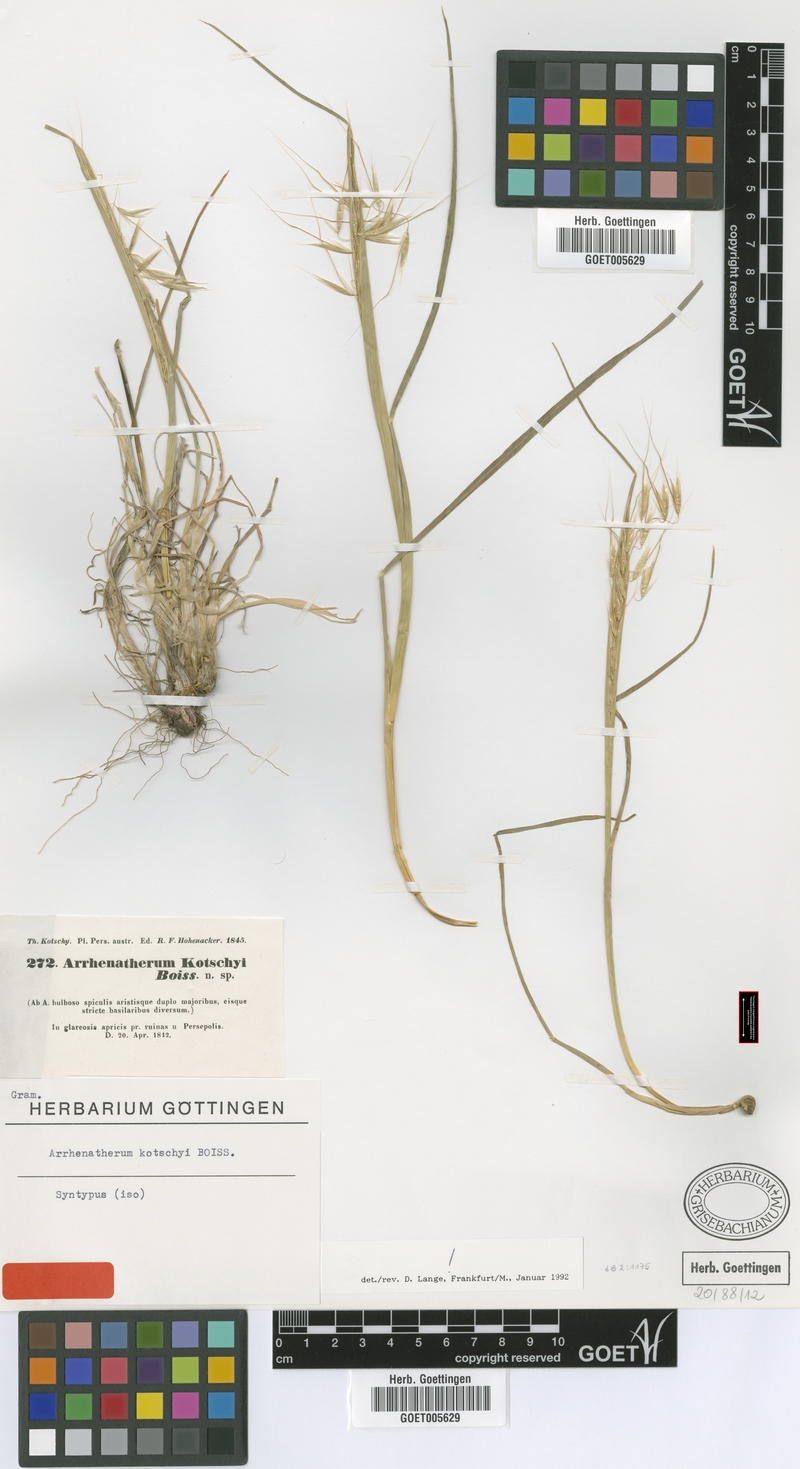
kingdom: Plantae
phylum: Tracheophyta
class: Liliopsida
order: Poales
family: Poaceae
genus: Arrhenatherum
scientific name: Arrhenatherum kotschyi
